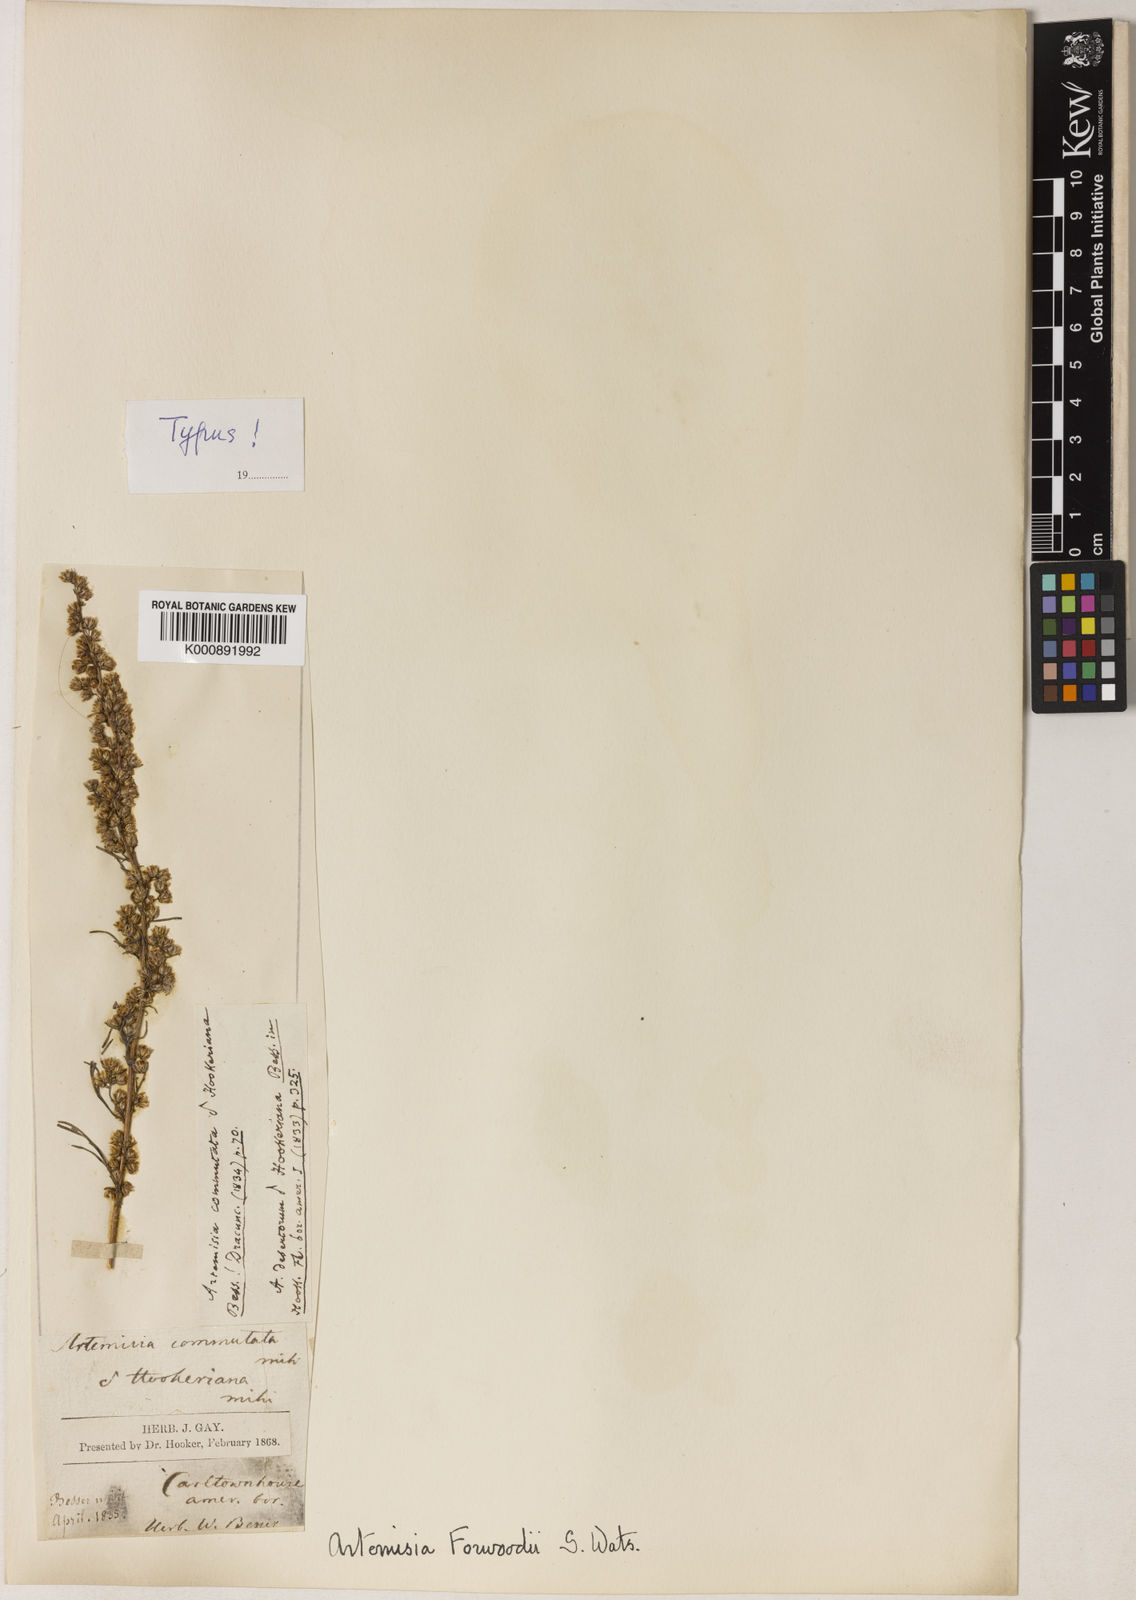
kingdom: Plantae
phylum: Tracheophyta
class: Magnoliopsida
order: Asterales
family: Asteraceae
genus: Artemisia
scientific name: Artemisia campestris
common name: Field wormwood
